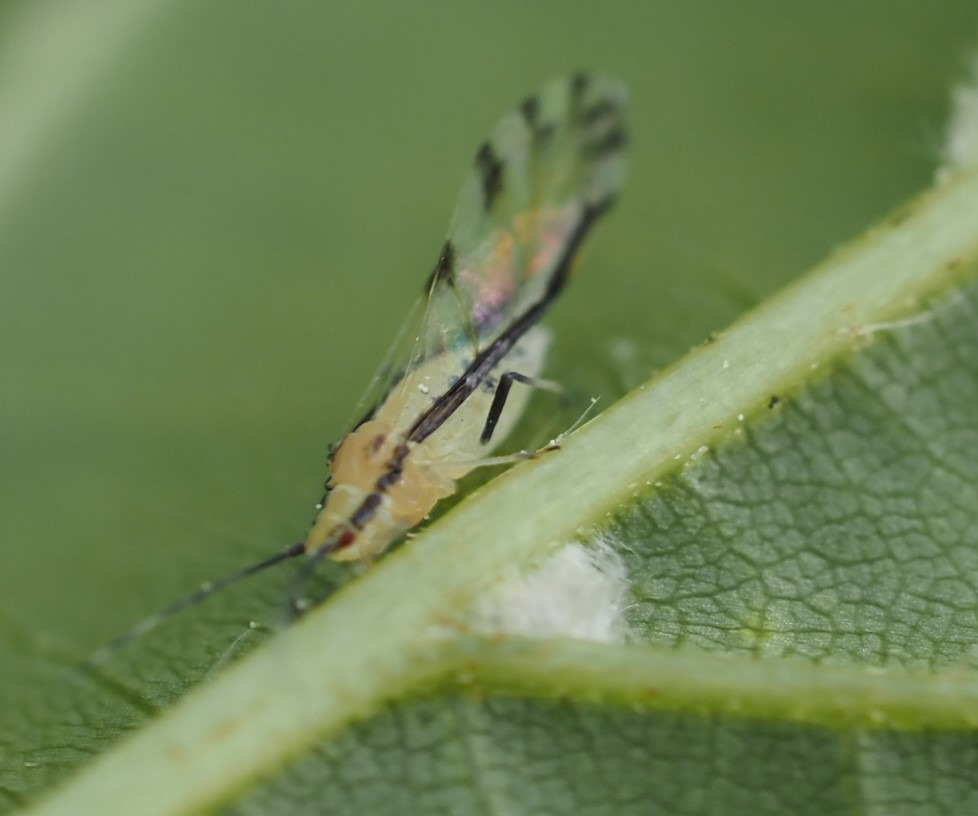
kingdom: Animalia
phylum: Arthropoda
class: Insecta
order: Hemiptera
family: Aphididae
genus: Eucallipterus
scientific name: Eucallipterus tiliae
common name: Lindebladlus
